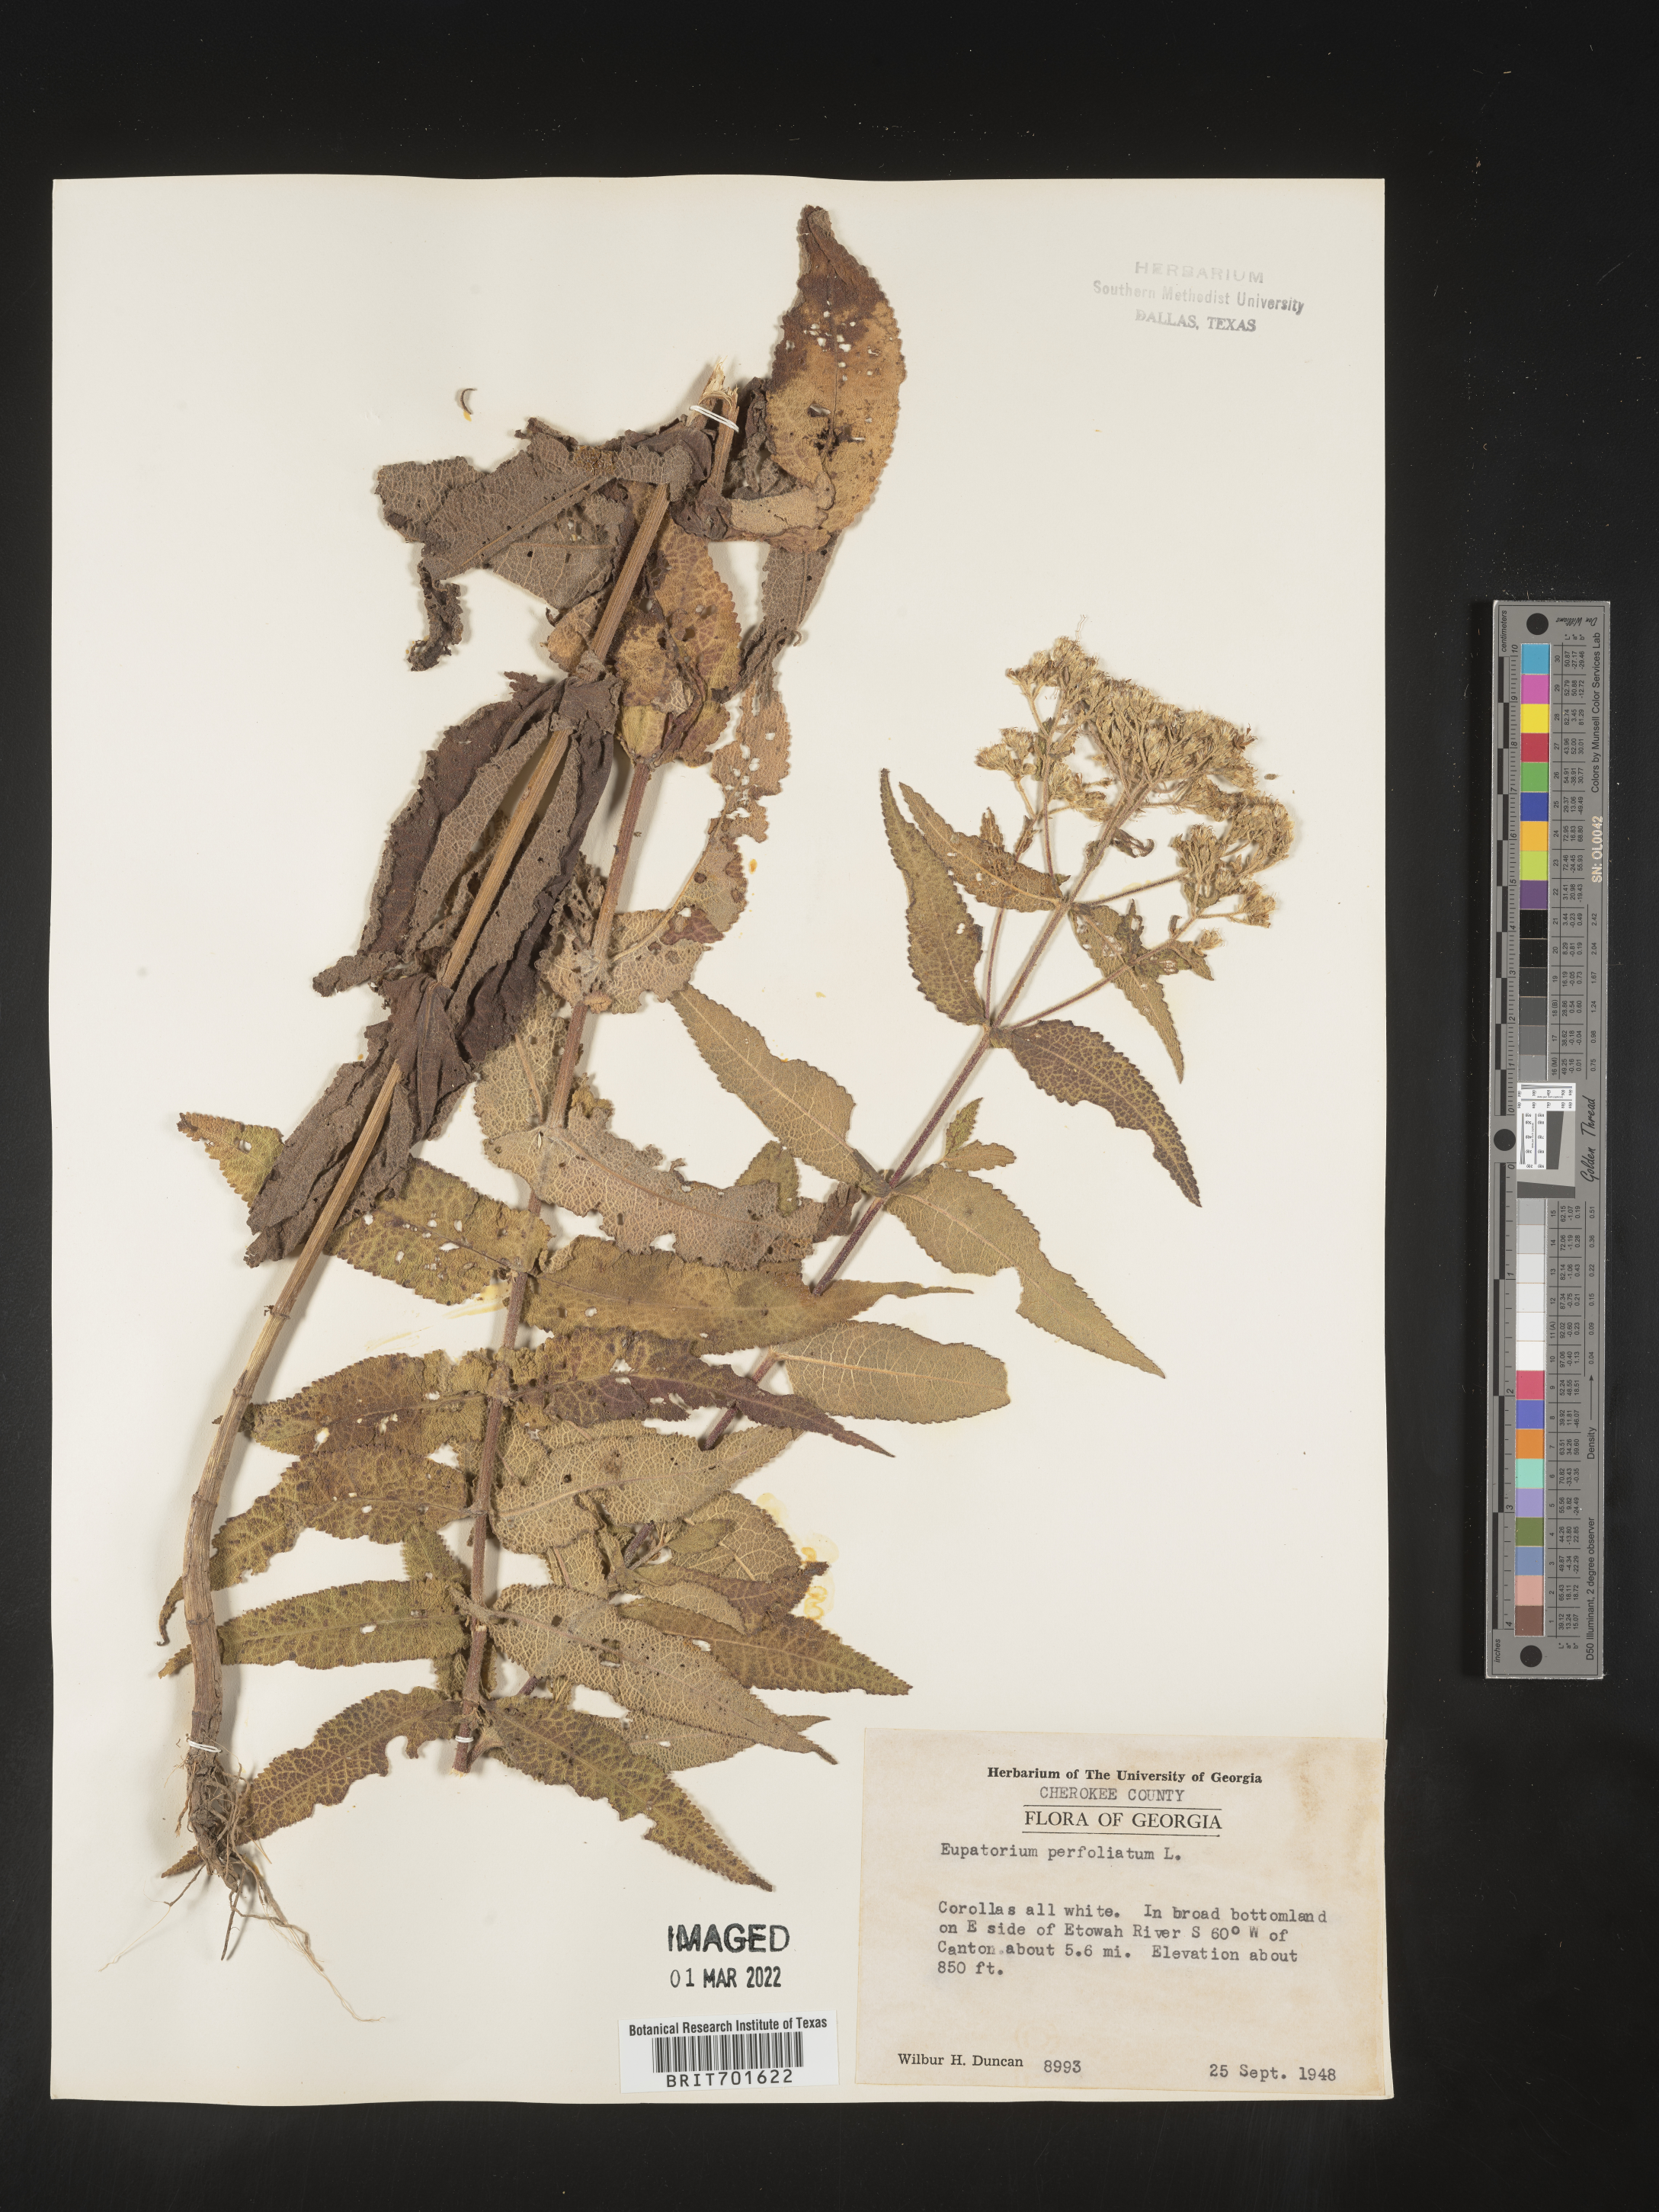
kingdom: Plantae
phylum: Tracheophyta
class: Magnoliopsida
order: Asterales
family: Asteraceae
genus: Eupatorium
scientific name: Eupatorium perfoliatum
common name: Boneset
